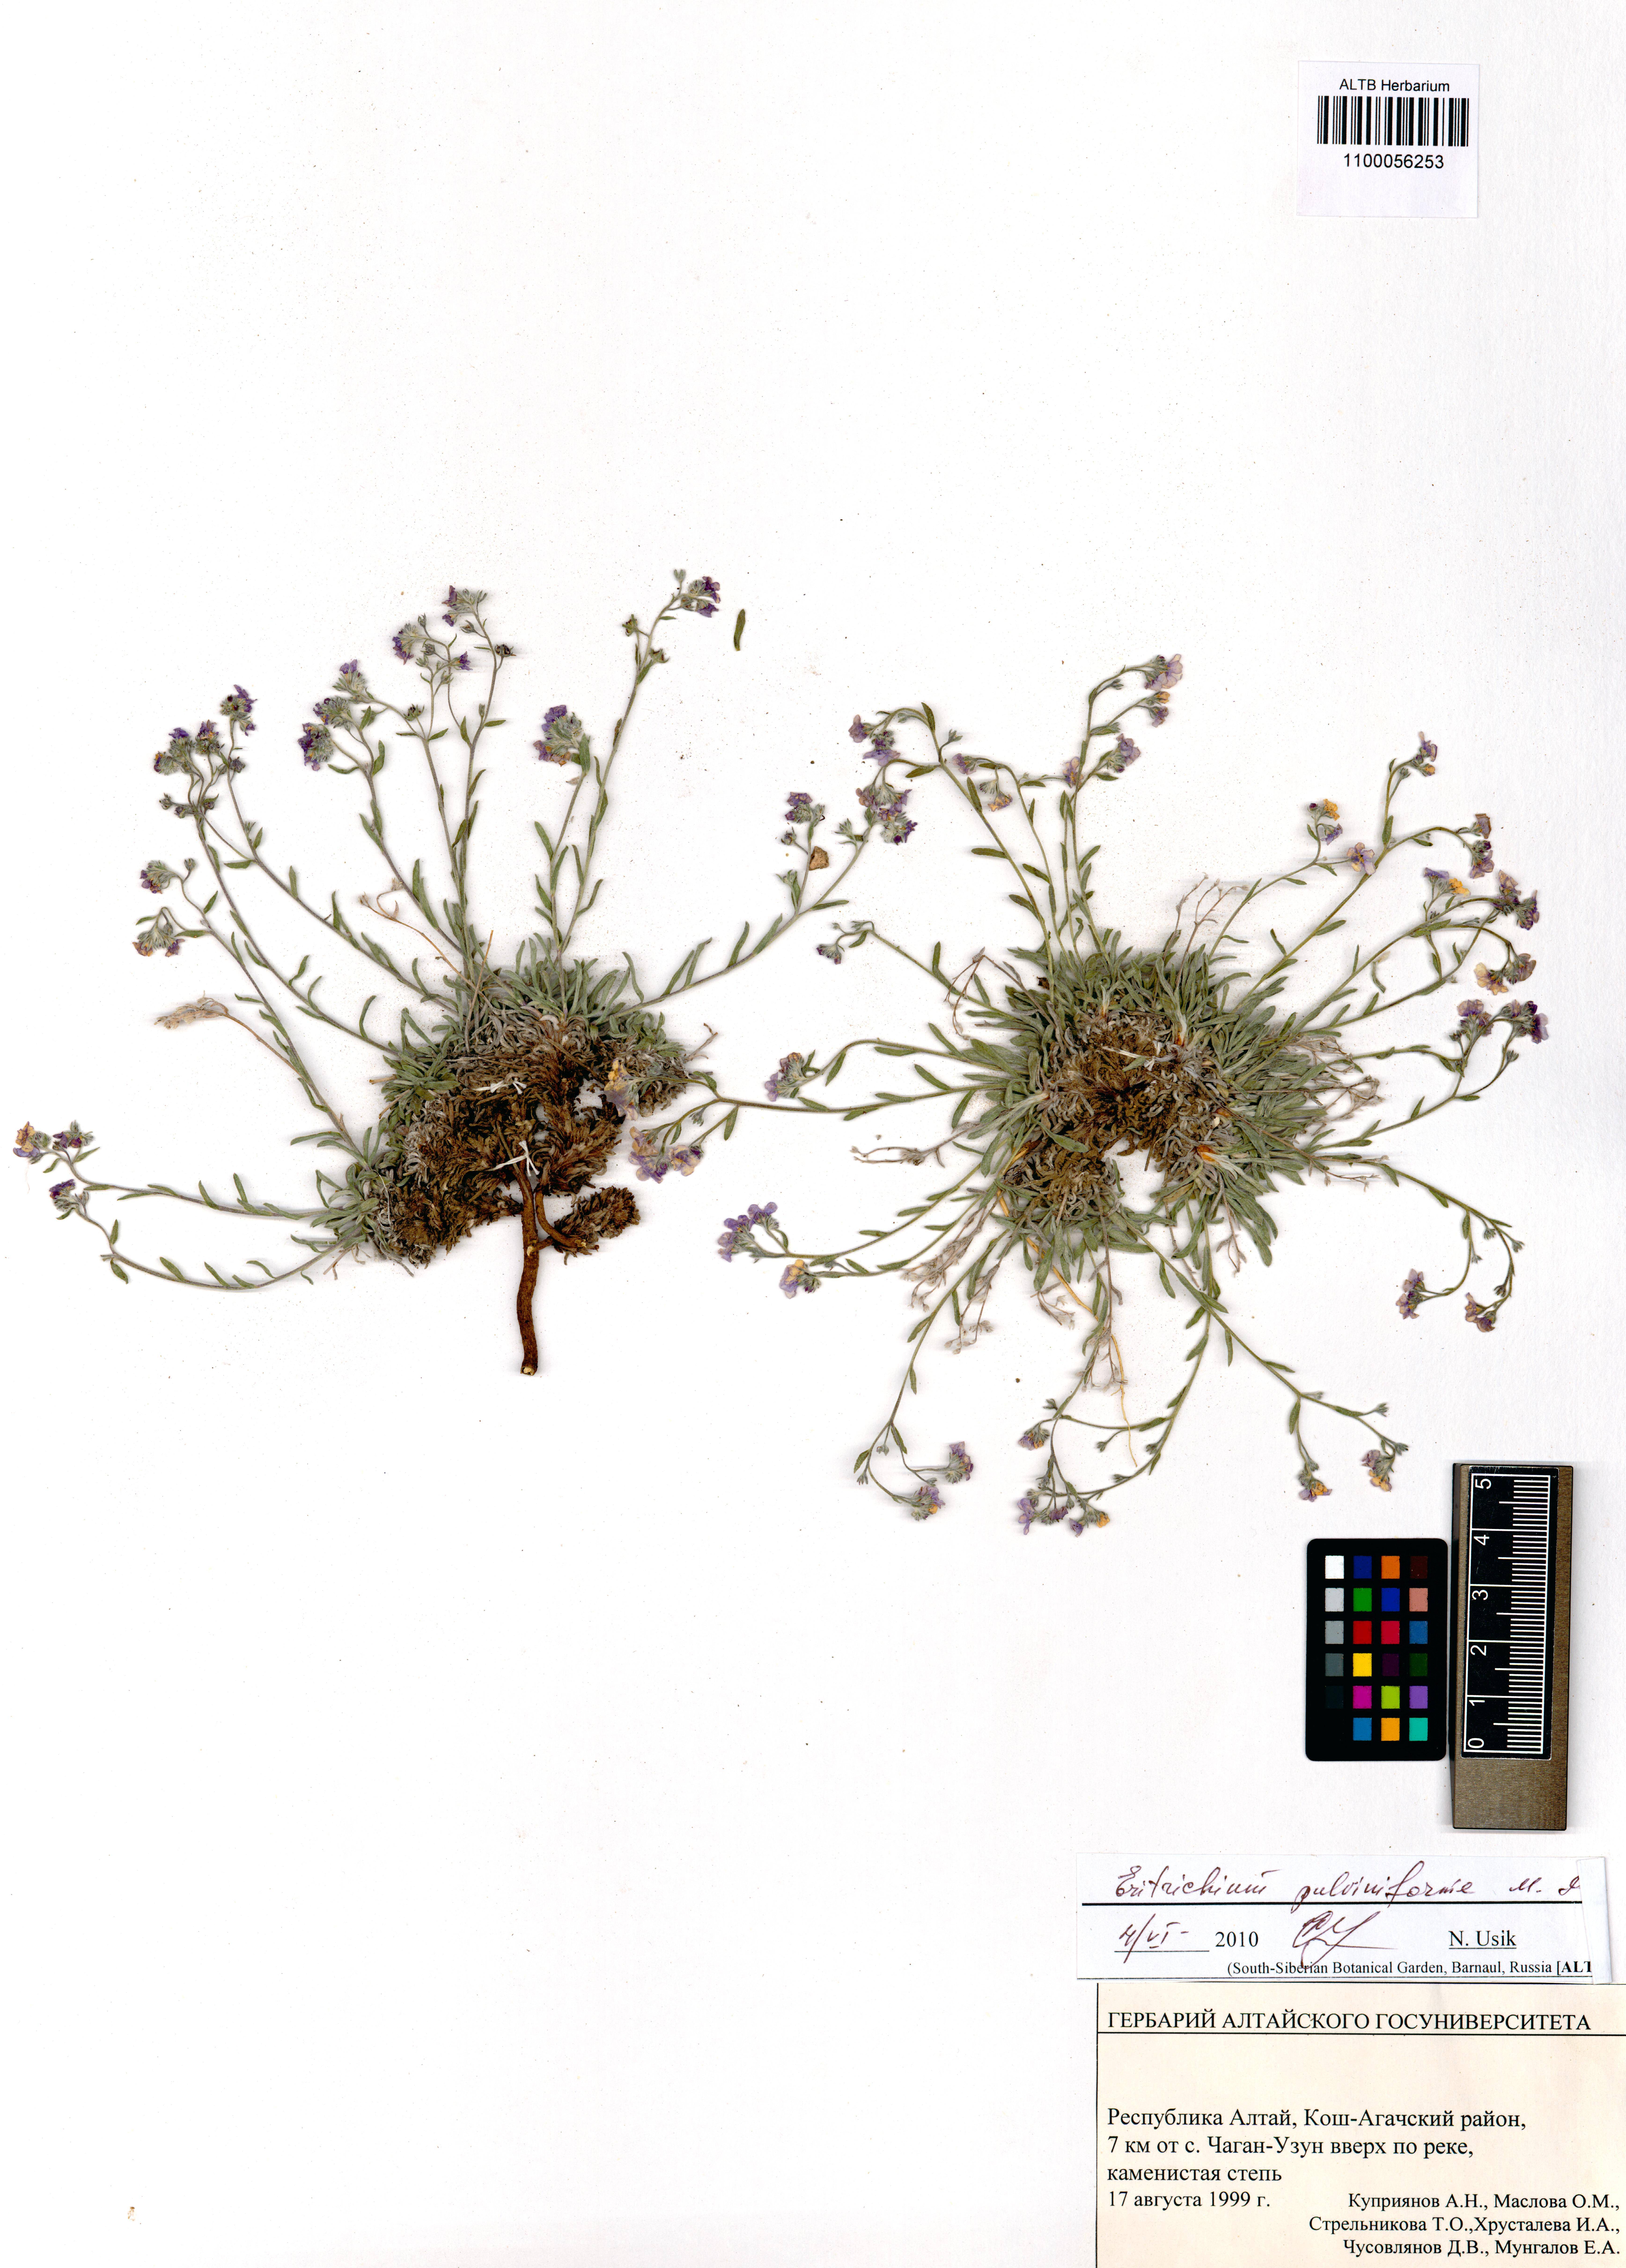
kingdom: Plantae
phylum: Tracheophyta
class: Magnoliopsida
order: Boraginales
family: Boraginaceae
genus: Eritrichium
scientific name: Eritrichium pauciflorum
